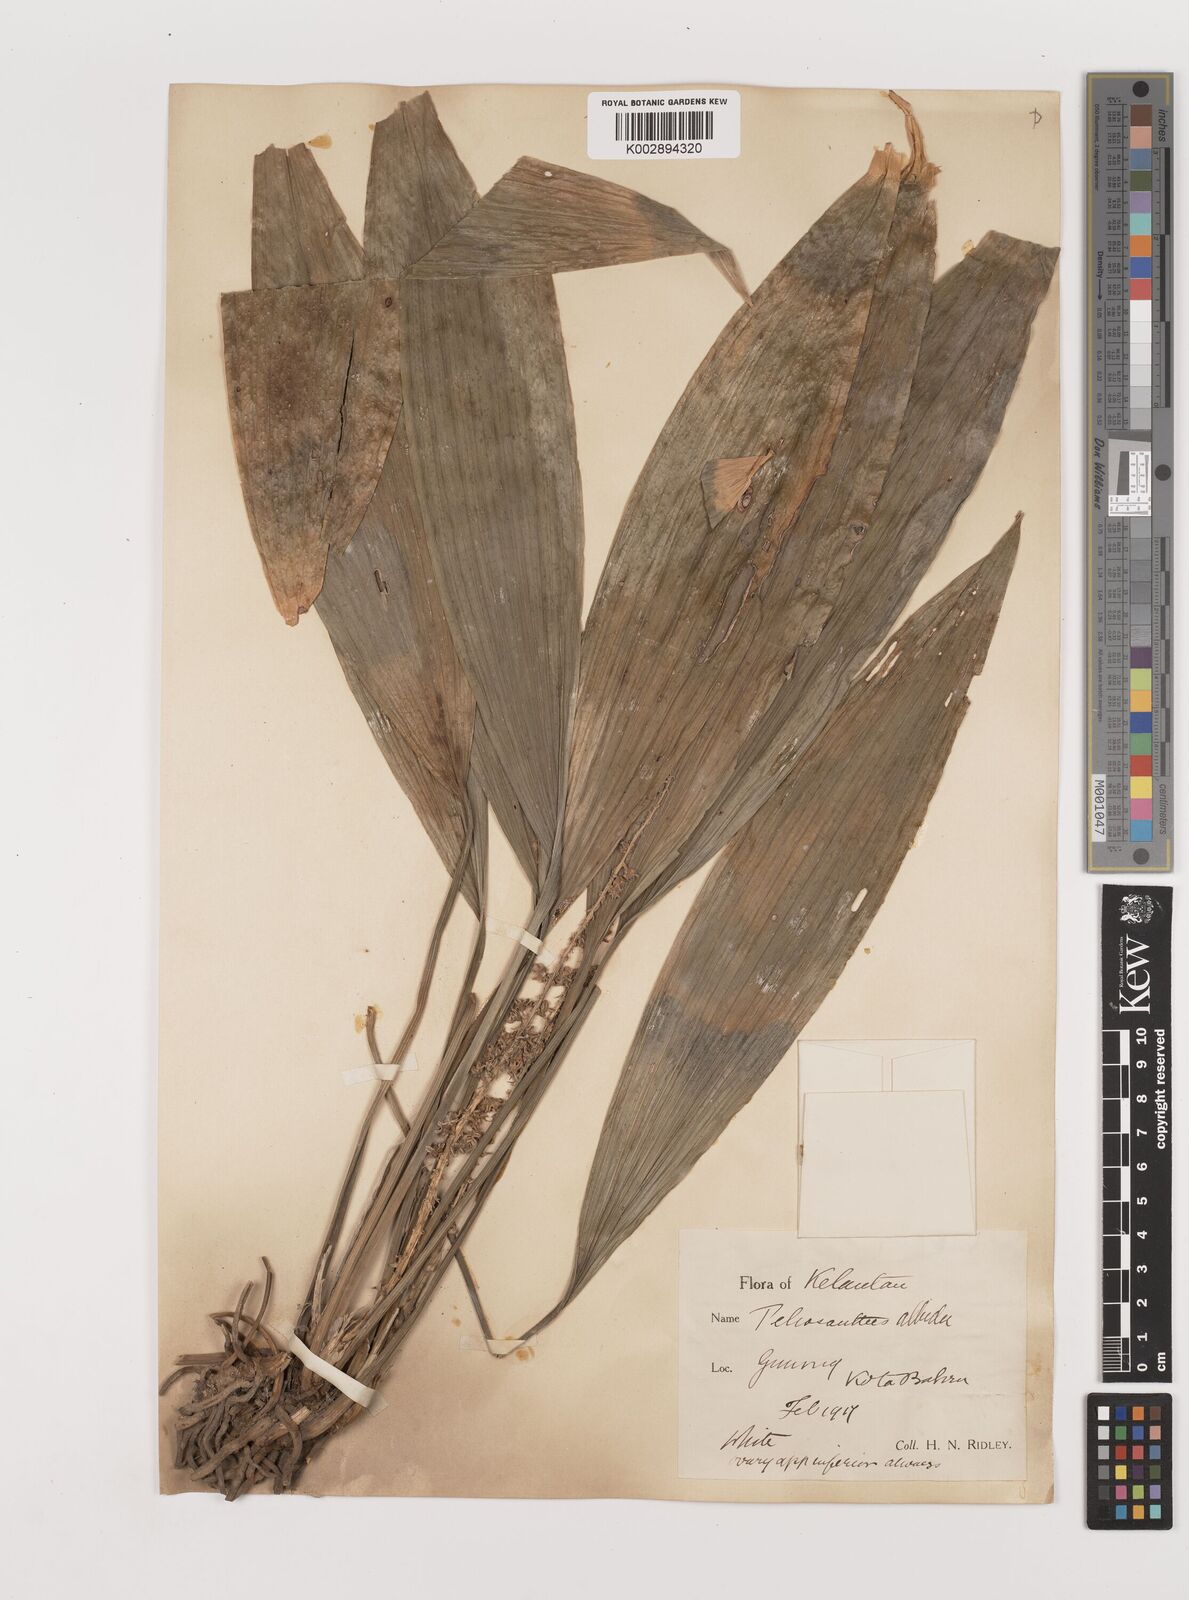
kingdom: Plantae
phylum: Tracheophyta
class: Liliopsida
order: Asparagales
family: Asparagaceae
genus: Peliosanthes
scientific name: Peliosanthes teta
